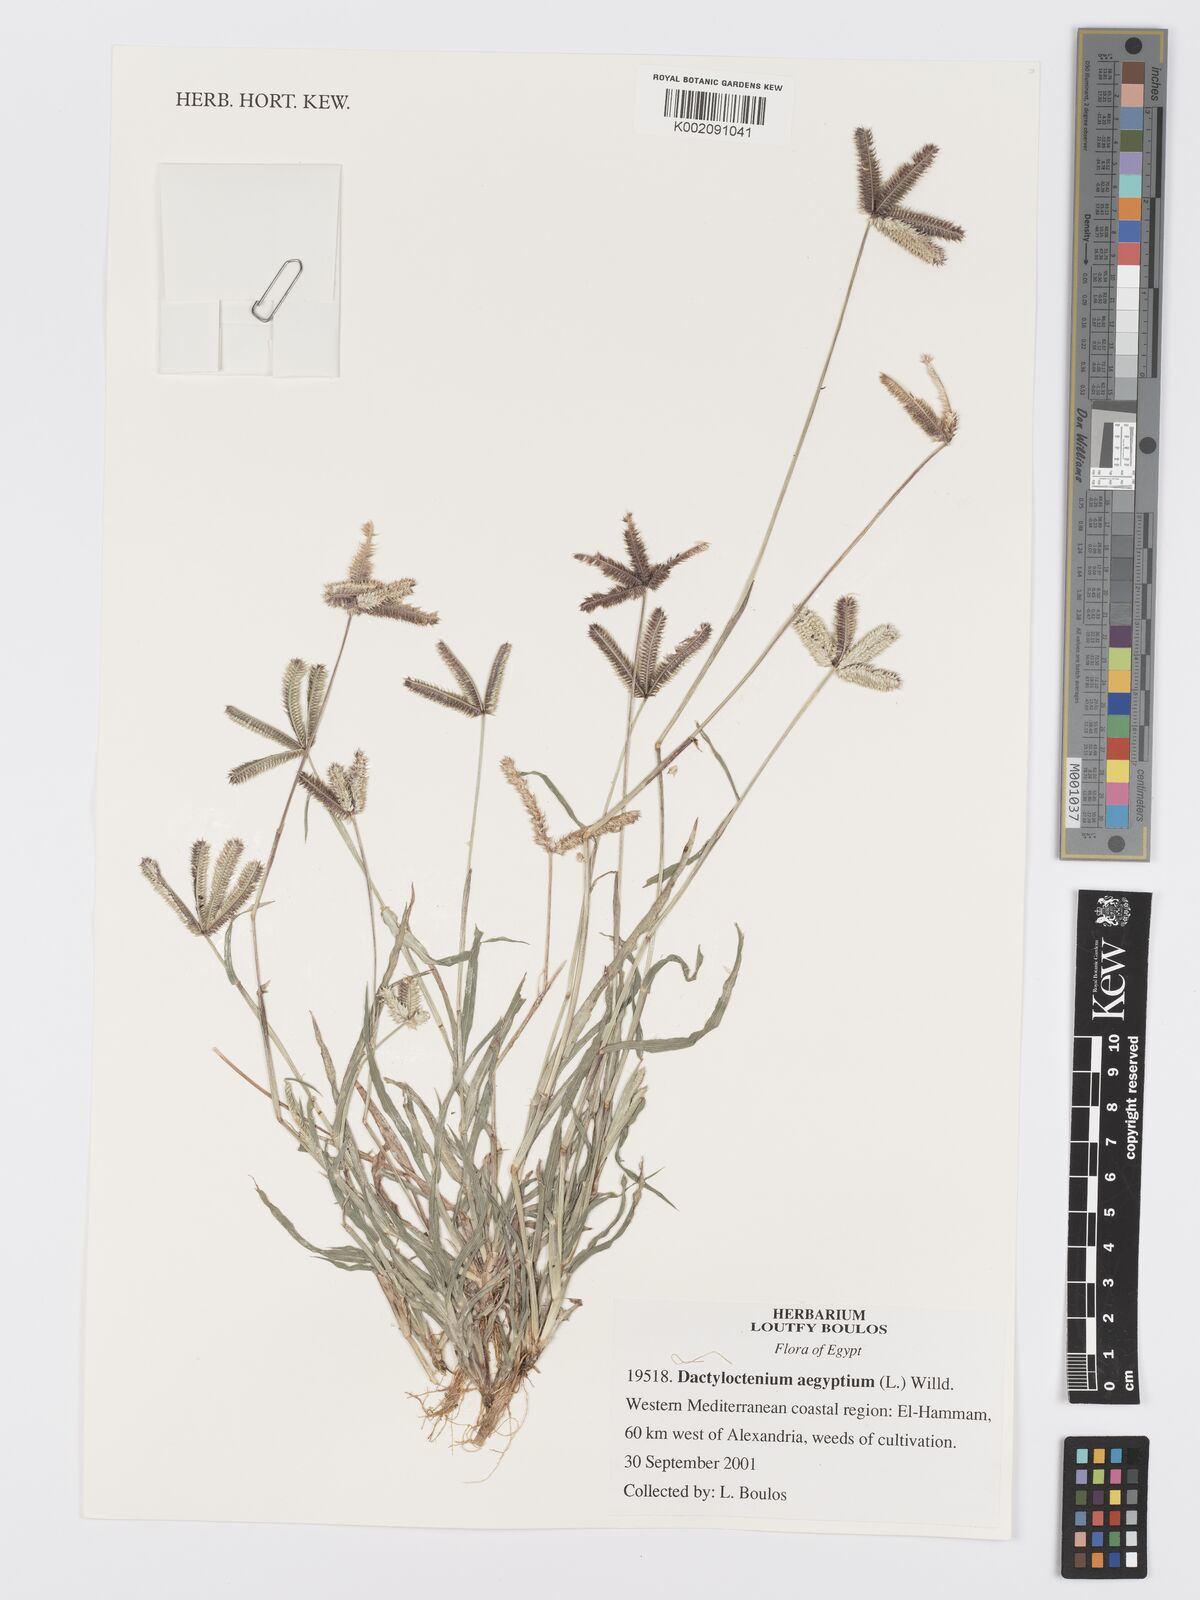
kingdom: Plantae
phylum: Tracheophyta
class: Liliopsida
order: Poales
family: Poaceae
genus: Dactyloctenium
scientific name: Dactyloctenium aegyptium
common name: Egyptian grass
